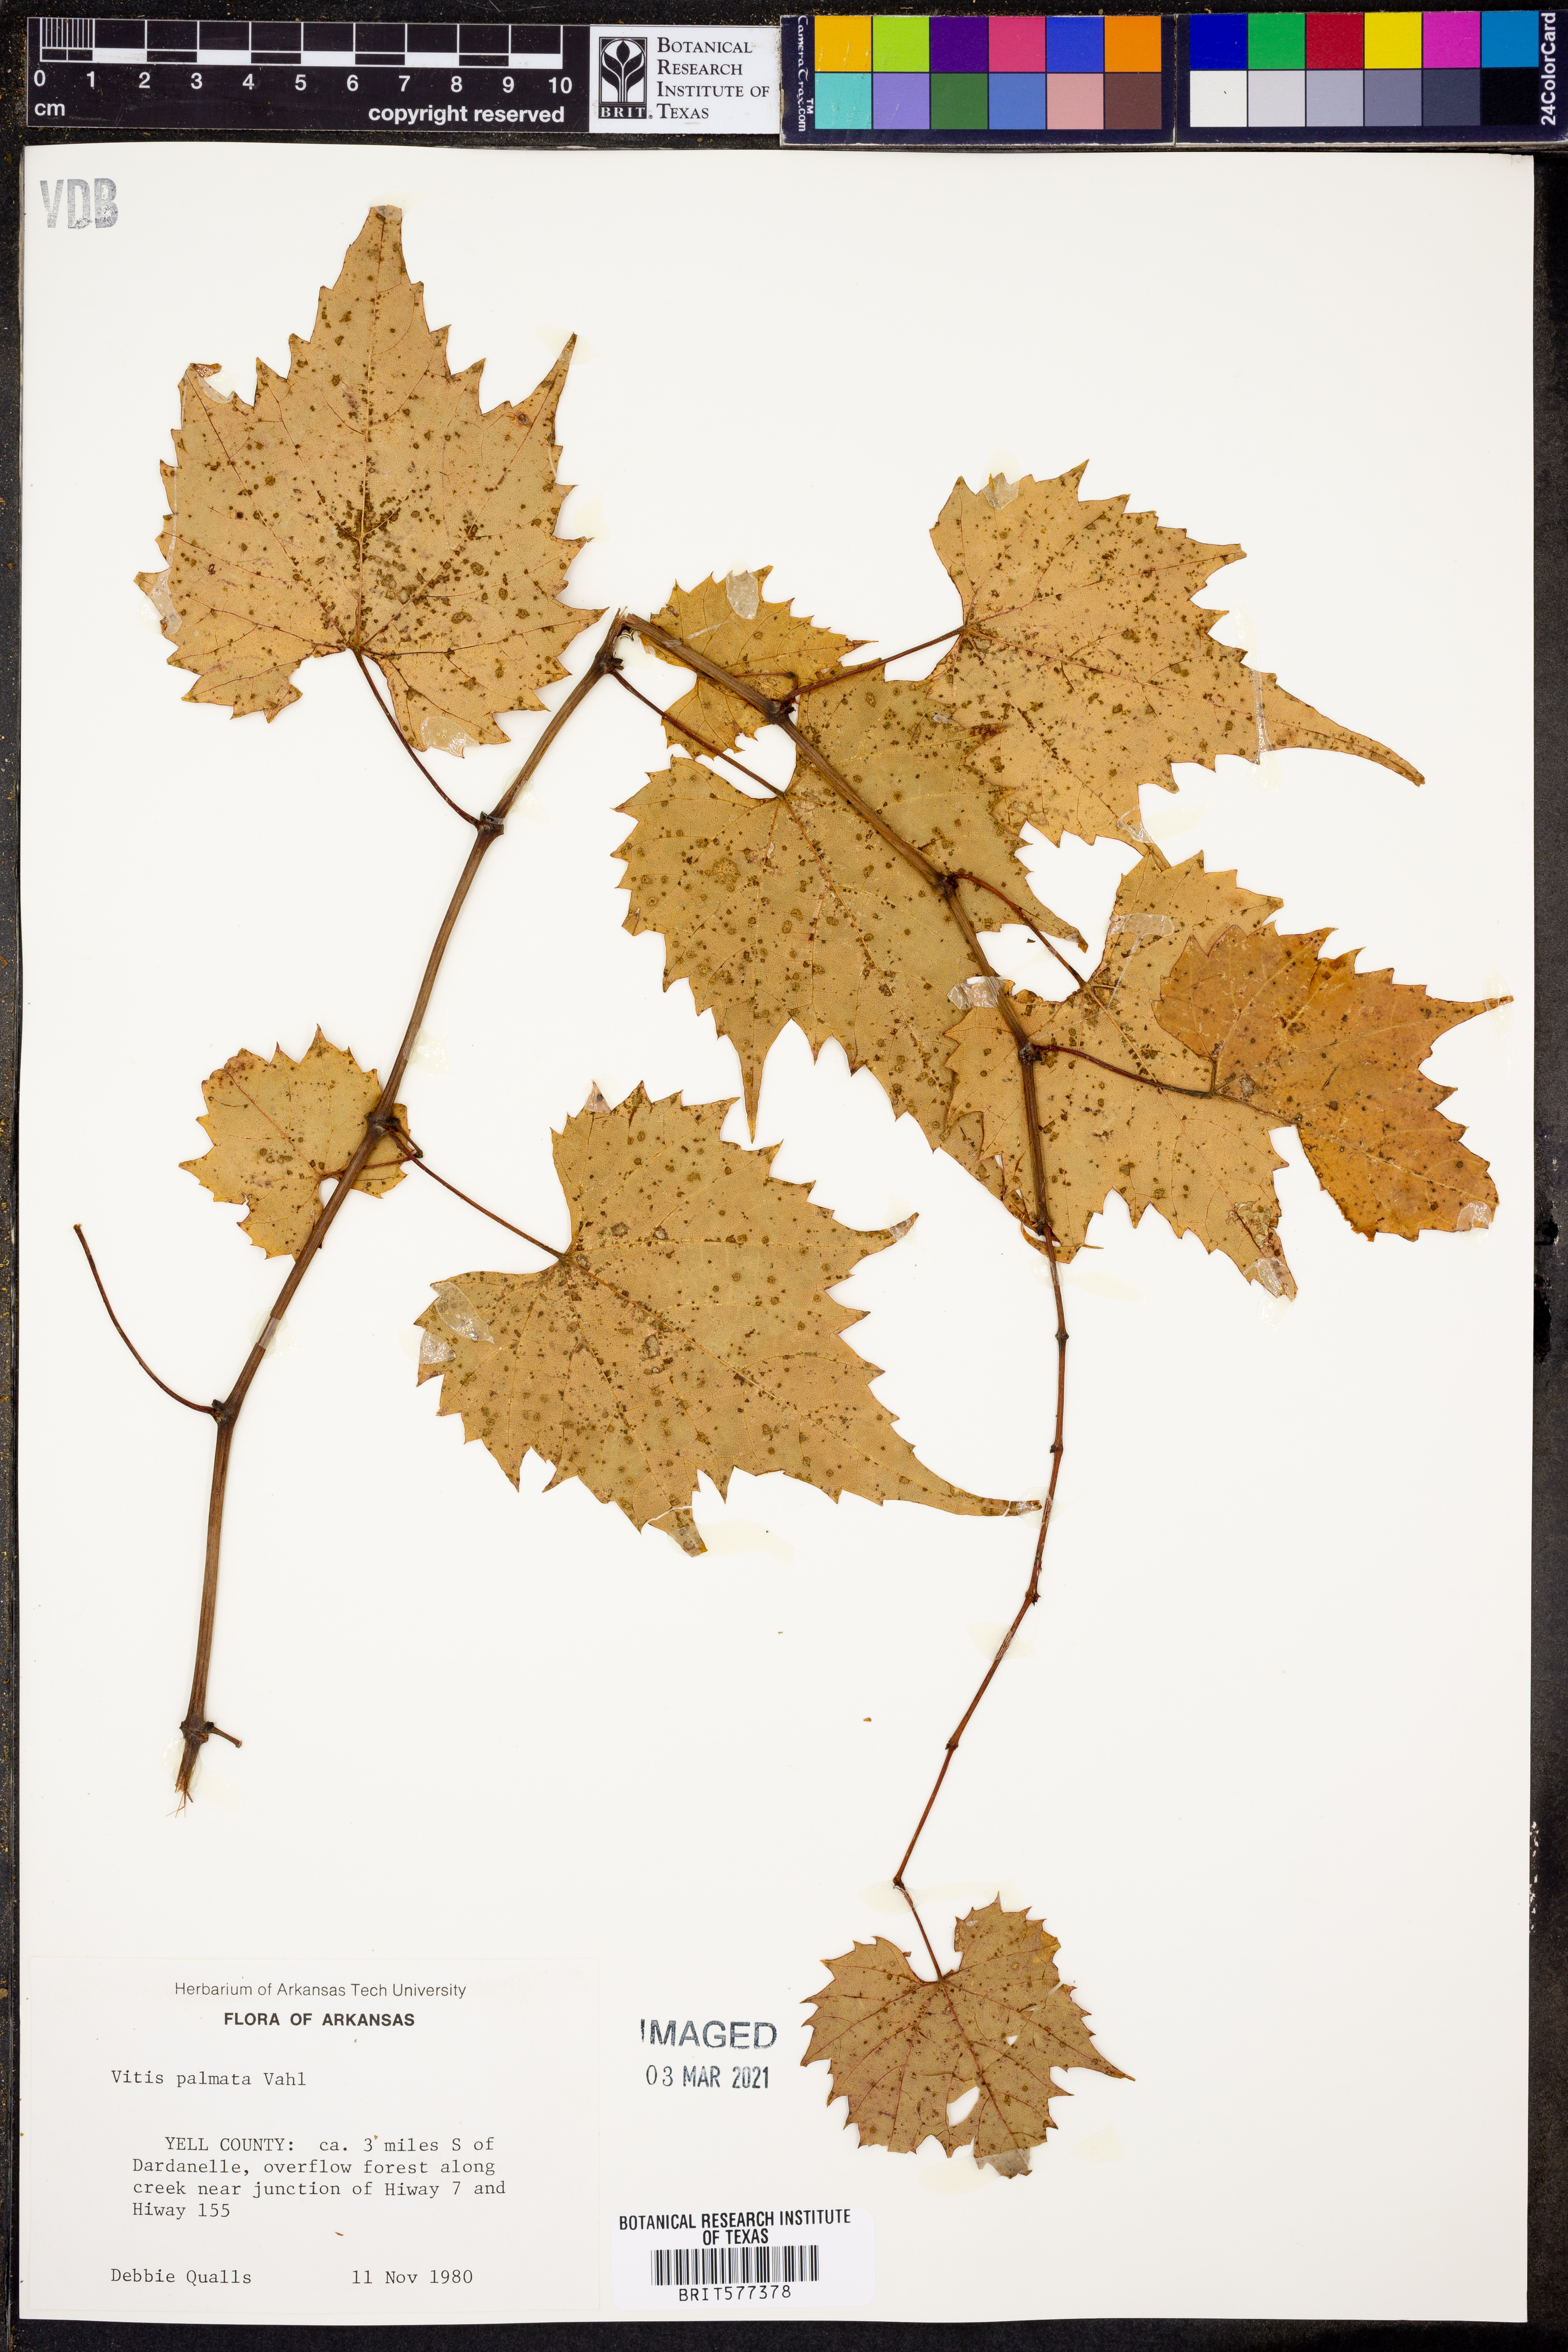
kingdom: Plantae
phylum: Tracheophyta
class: Magnoliopsida
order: Vitales
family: Vitaceae
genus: Vitis
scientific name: Vitis palmata
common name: Catbird grape
